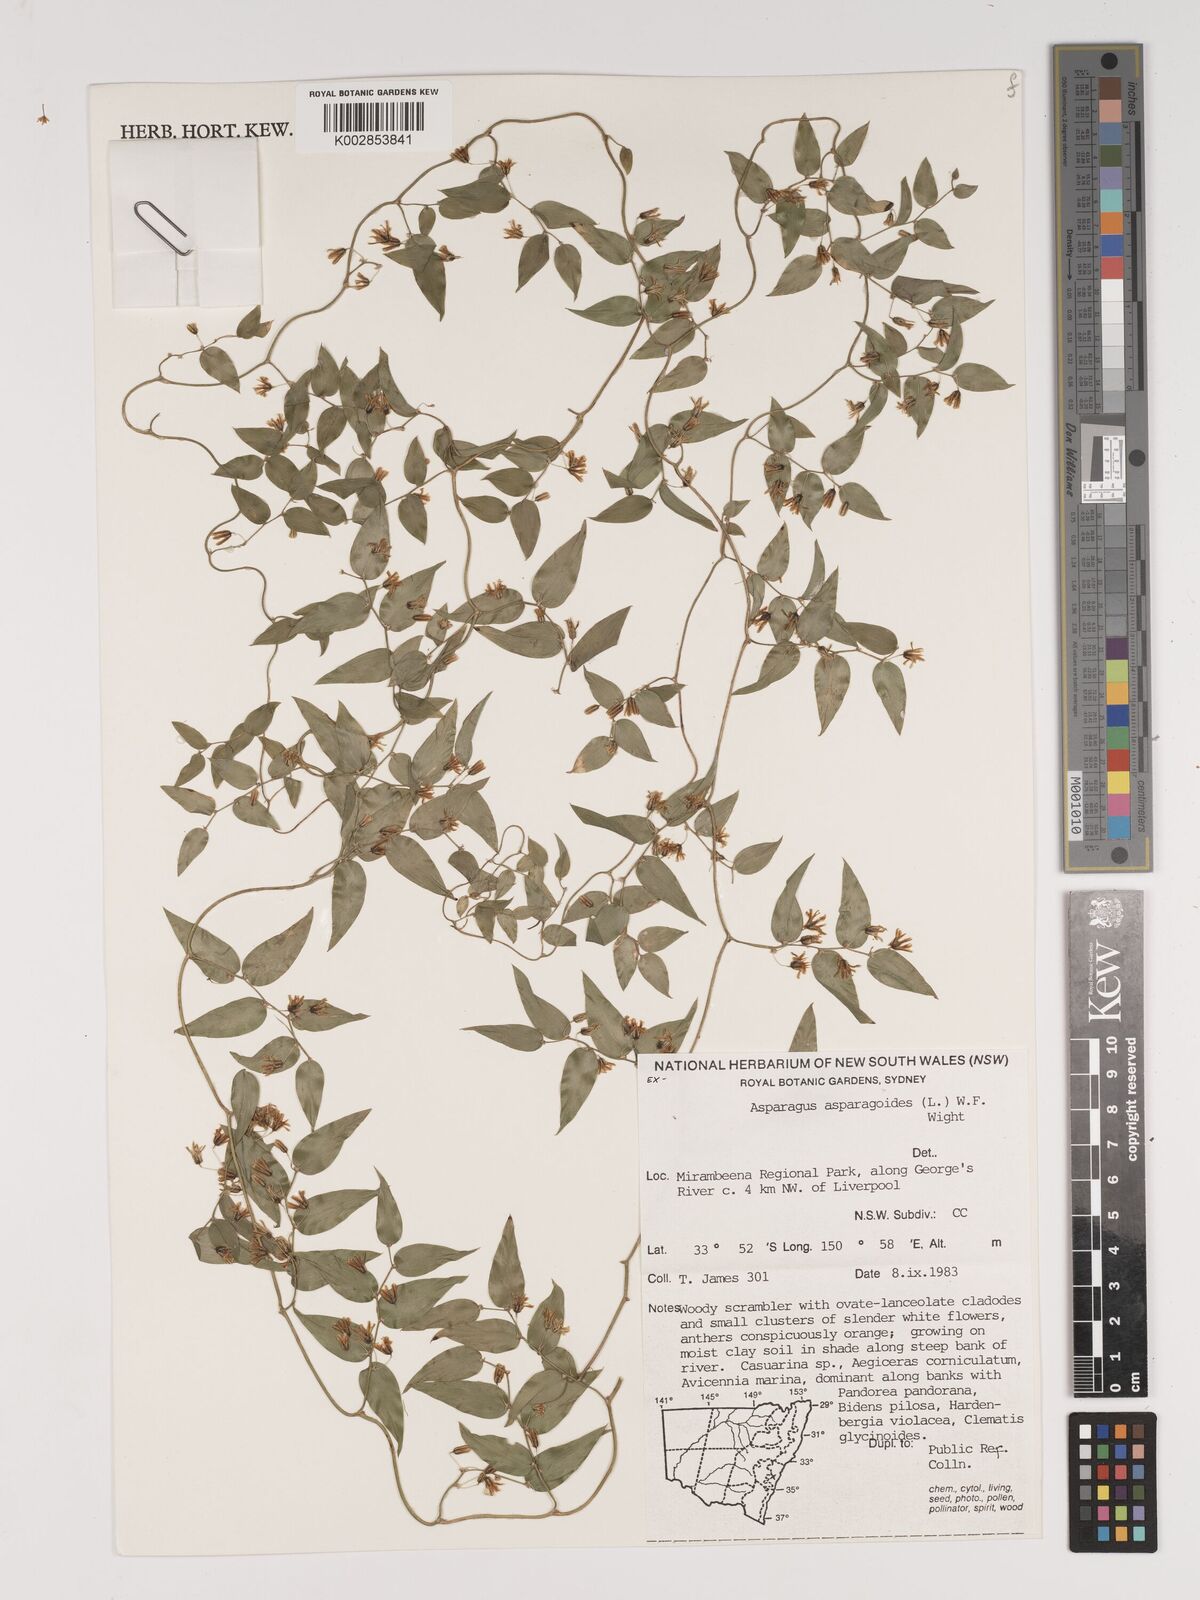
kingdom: Plantae
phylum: Tracheophyta
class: Liliopsida
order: Asparagales
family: Asparagaceae
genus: Asparagus
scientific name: Asparagus asparagoides
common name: African asparagus fern
